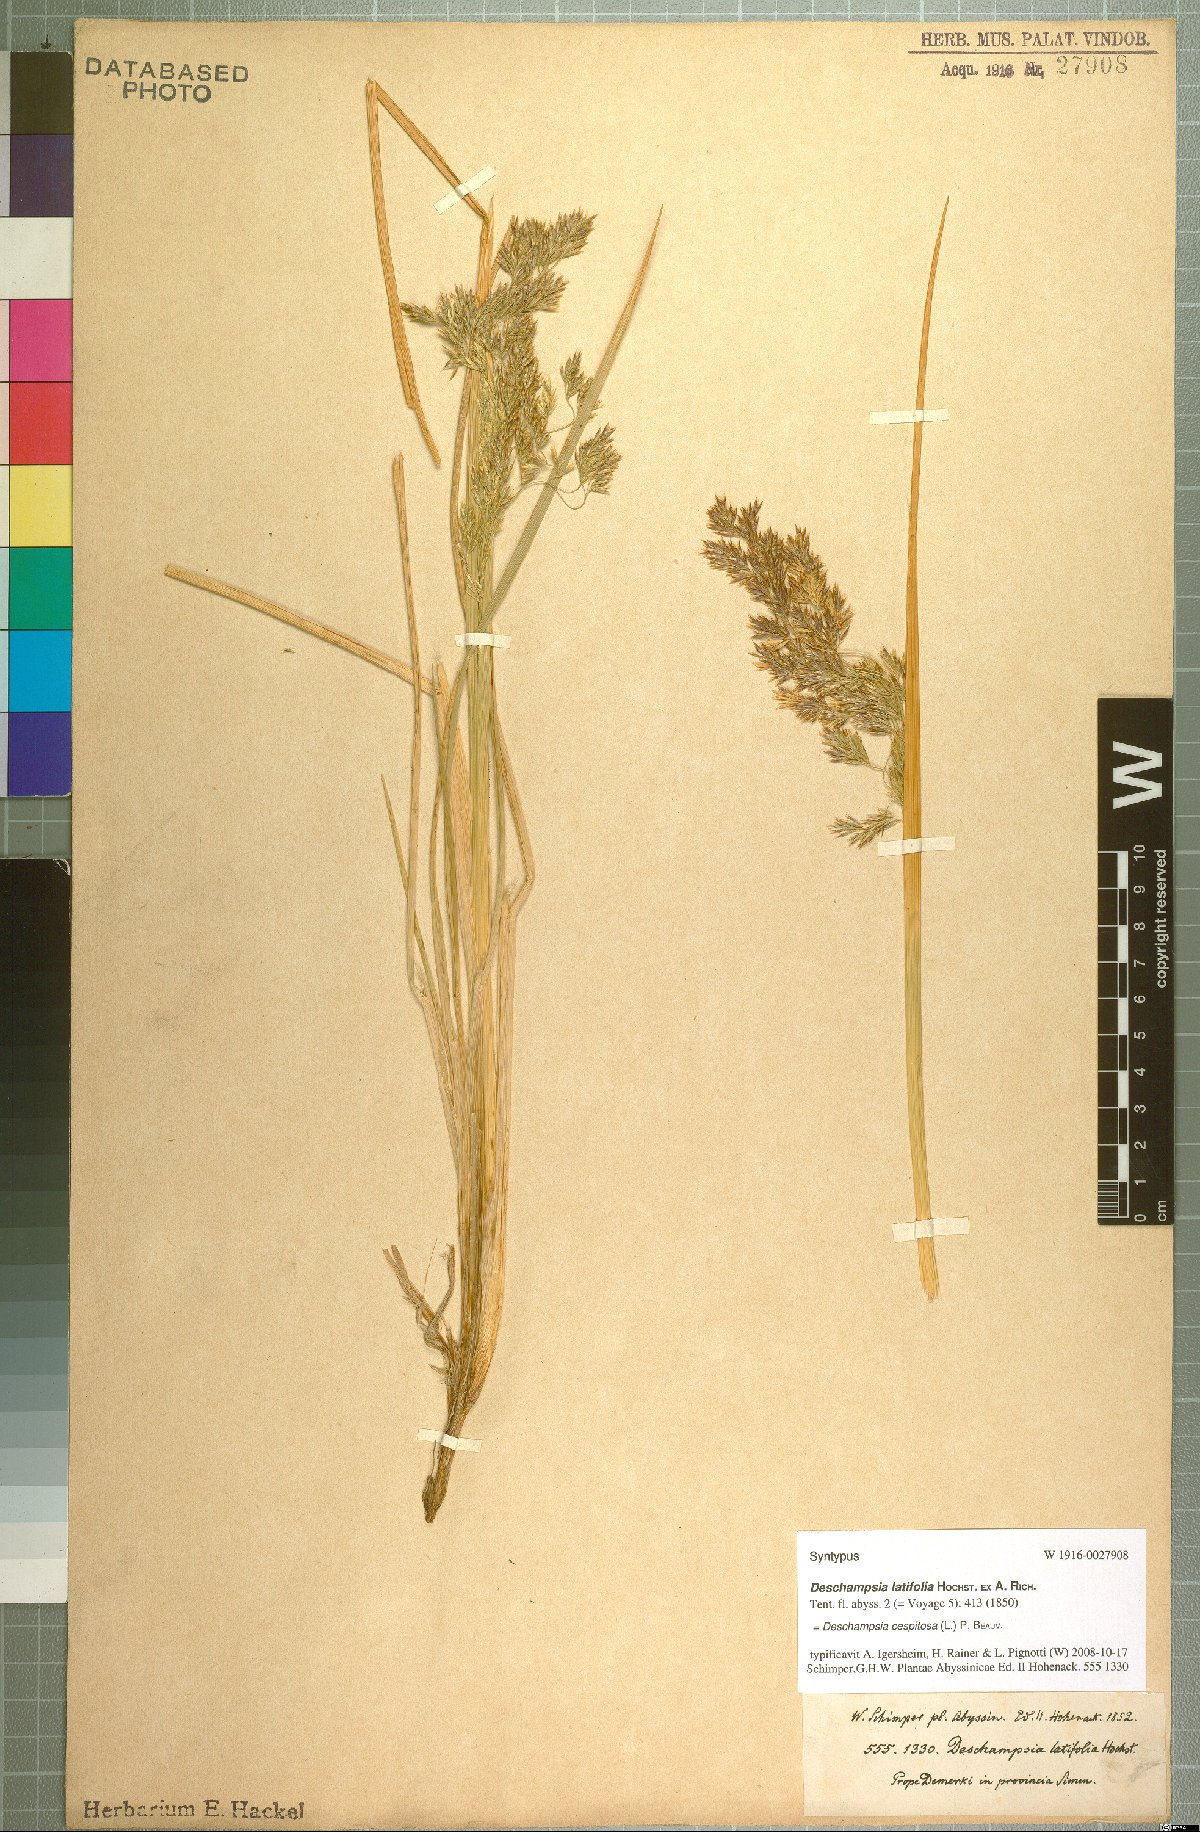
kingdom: Plantae
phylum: Tracheophyta
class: Liliopsida
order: Poales
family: Poaceae
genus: Deschampsia
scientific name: Deschampsia cespitosa
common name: Tufted hair-grass
